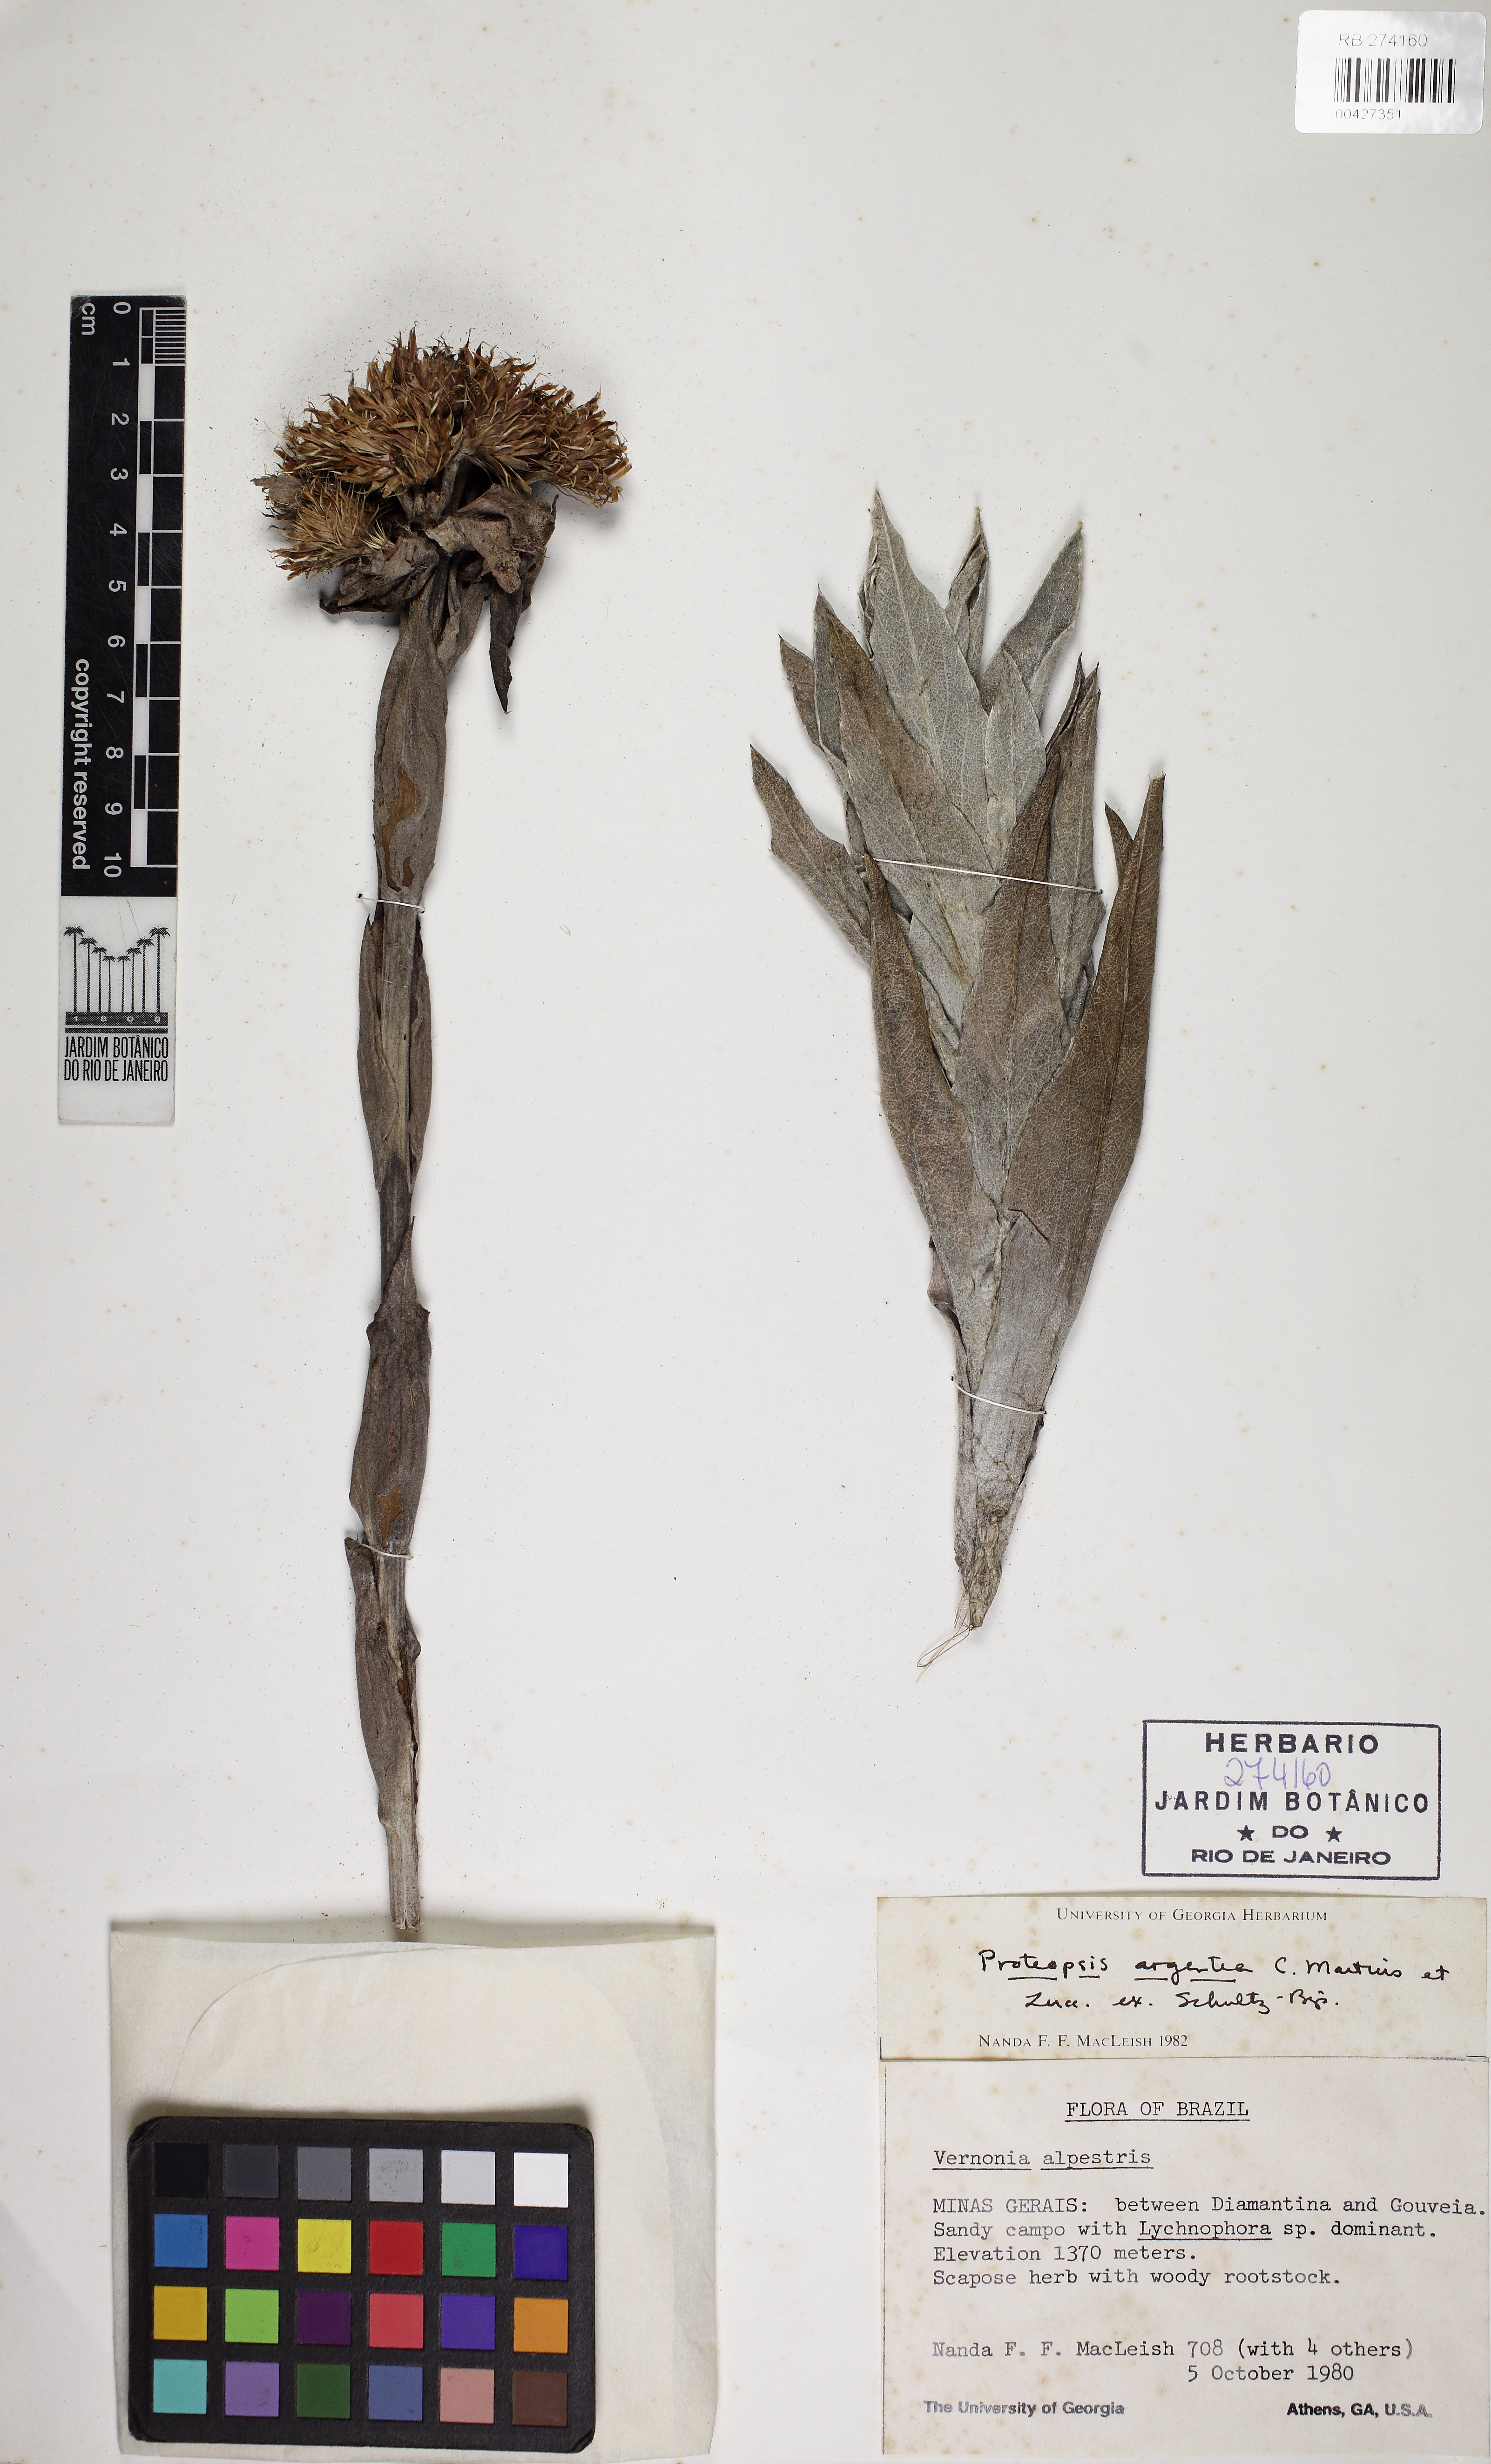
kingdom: Plantae
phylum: Tracheophyta
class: Magnoliopsida
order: Asterales
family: Asteraceae
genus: Proteopsis
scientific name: Proteopsis argentea
